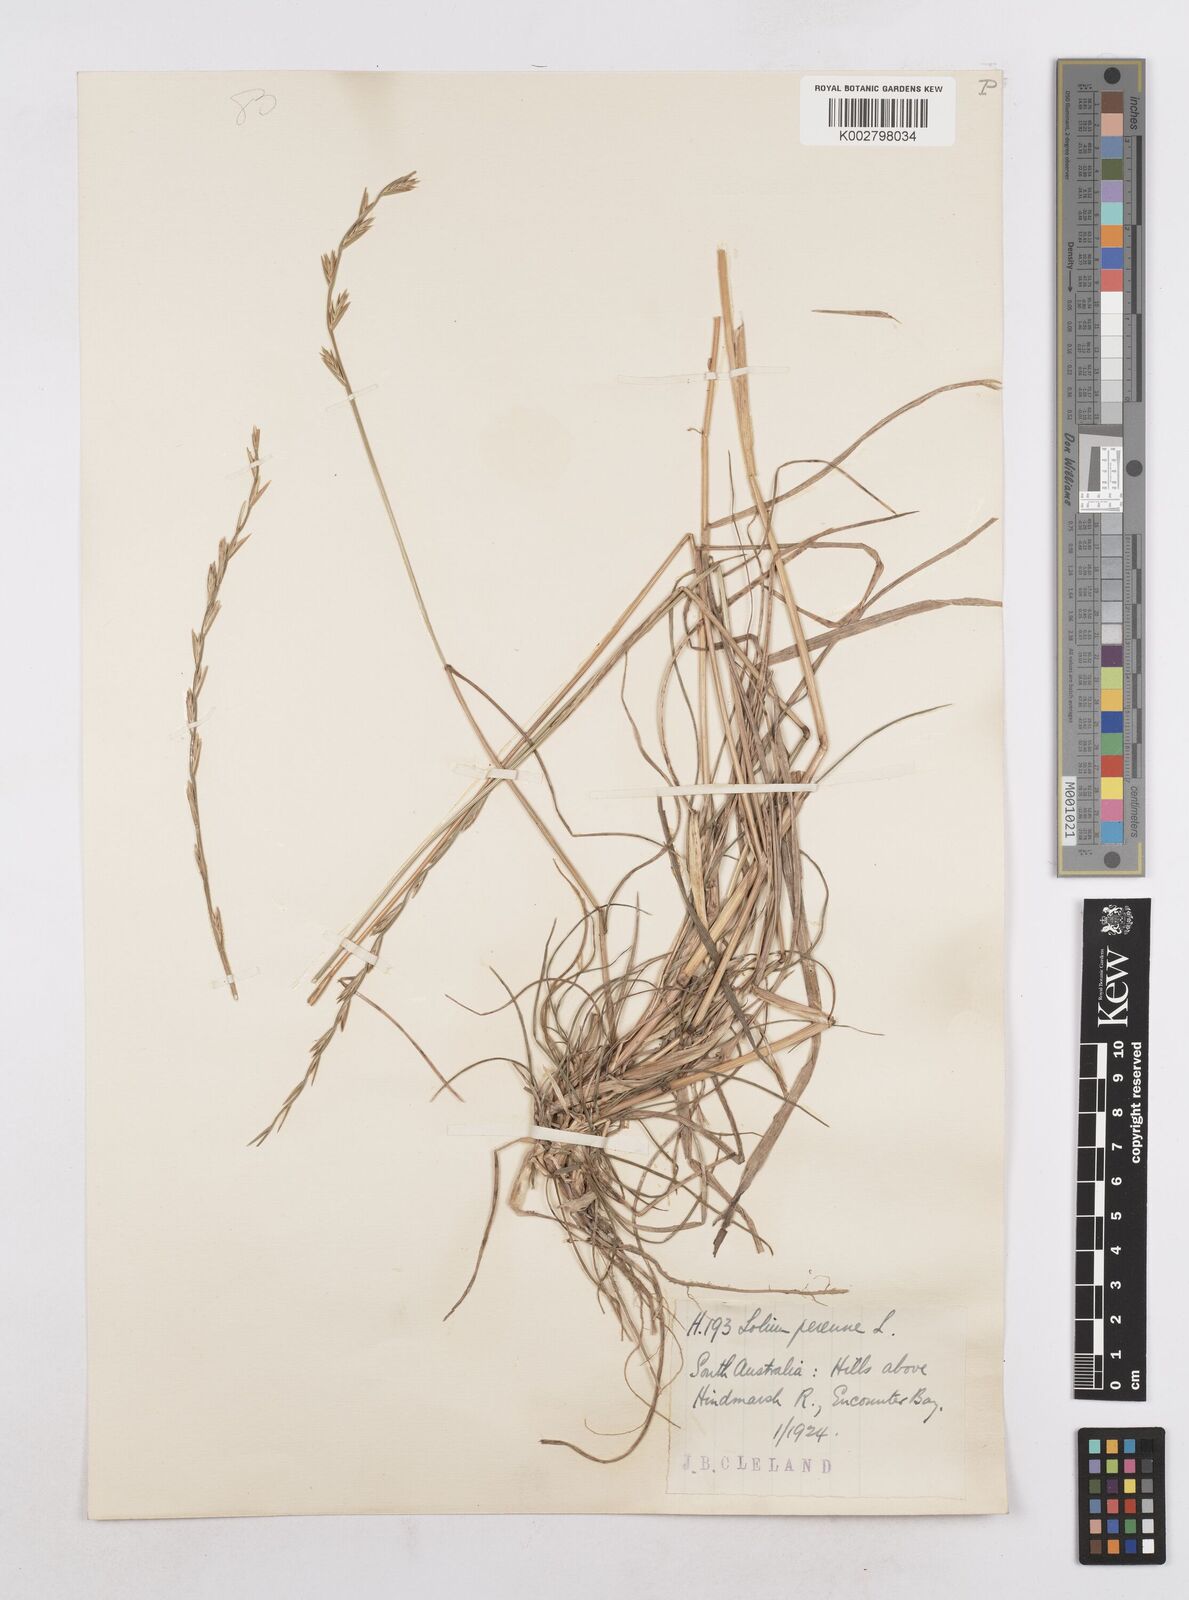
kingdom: Plantae
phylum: Tracheophyta
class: Liliopsida
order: Poales
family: Poaceae
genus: Lolium
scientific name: Lolium perenne
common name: Perennial ryegrass
